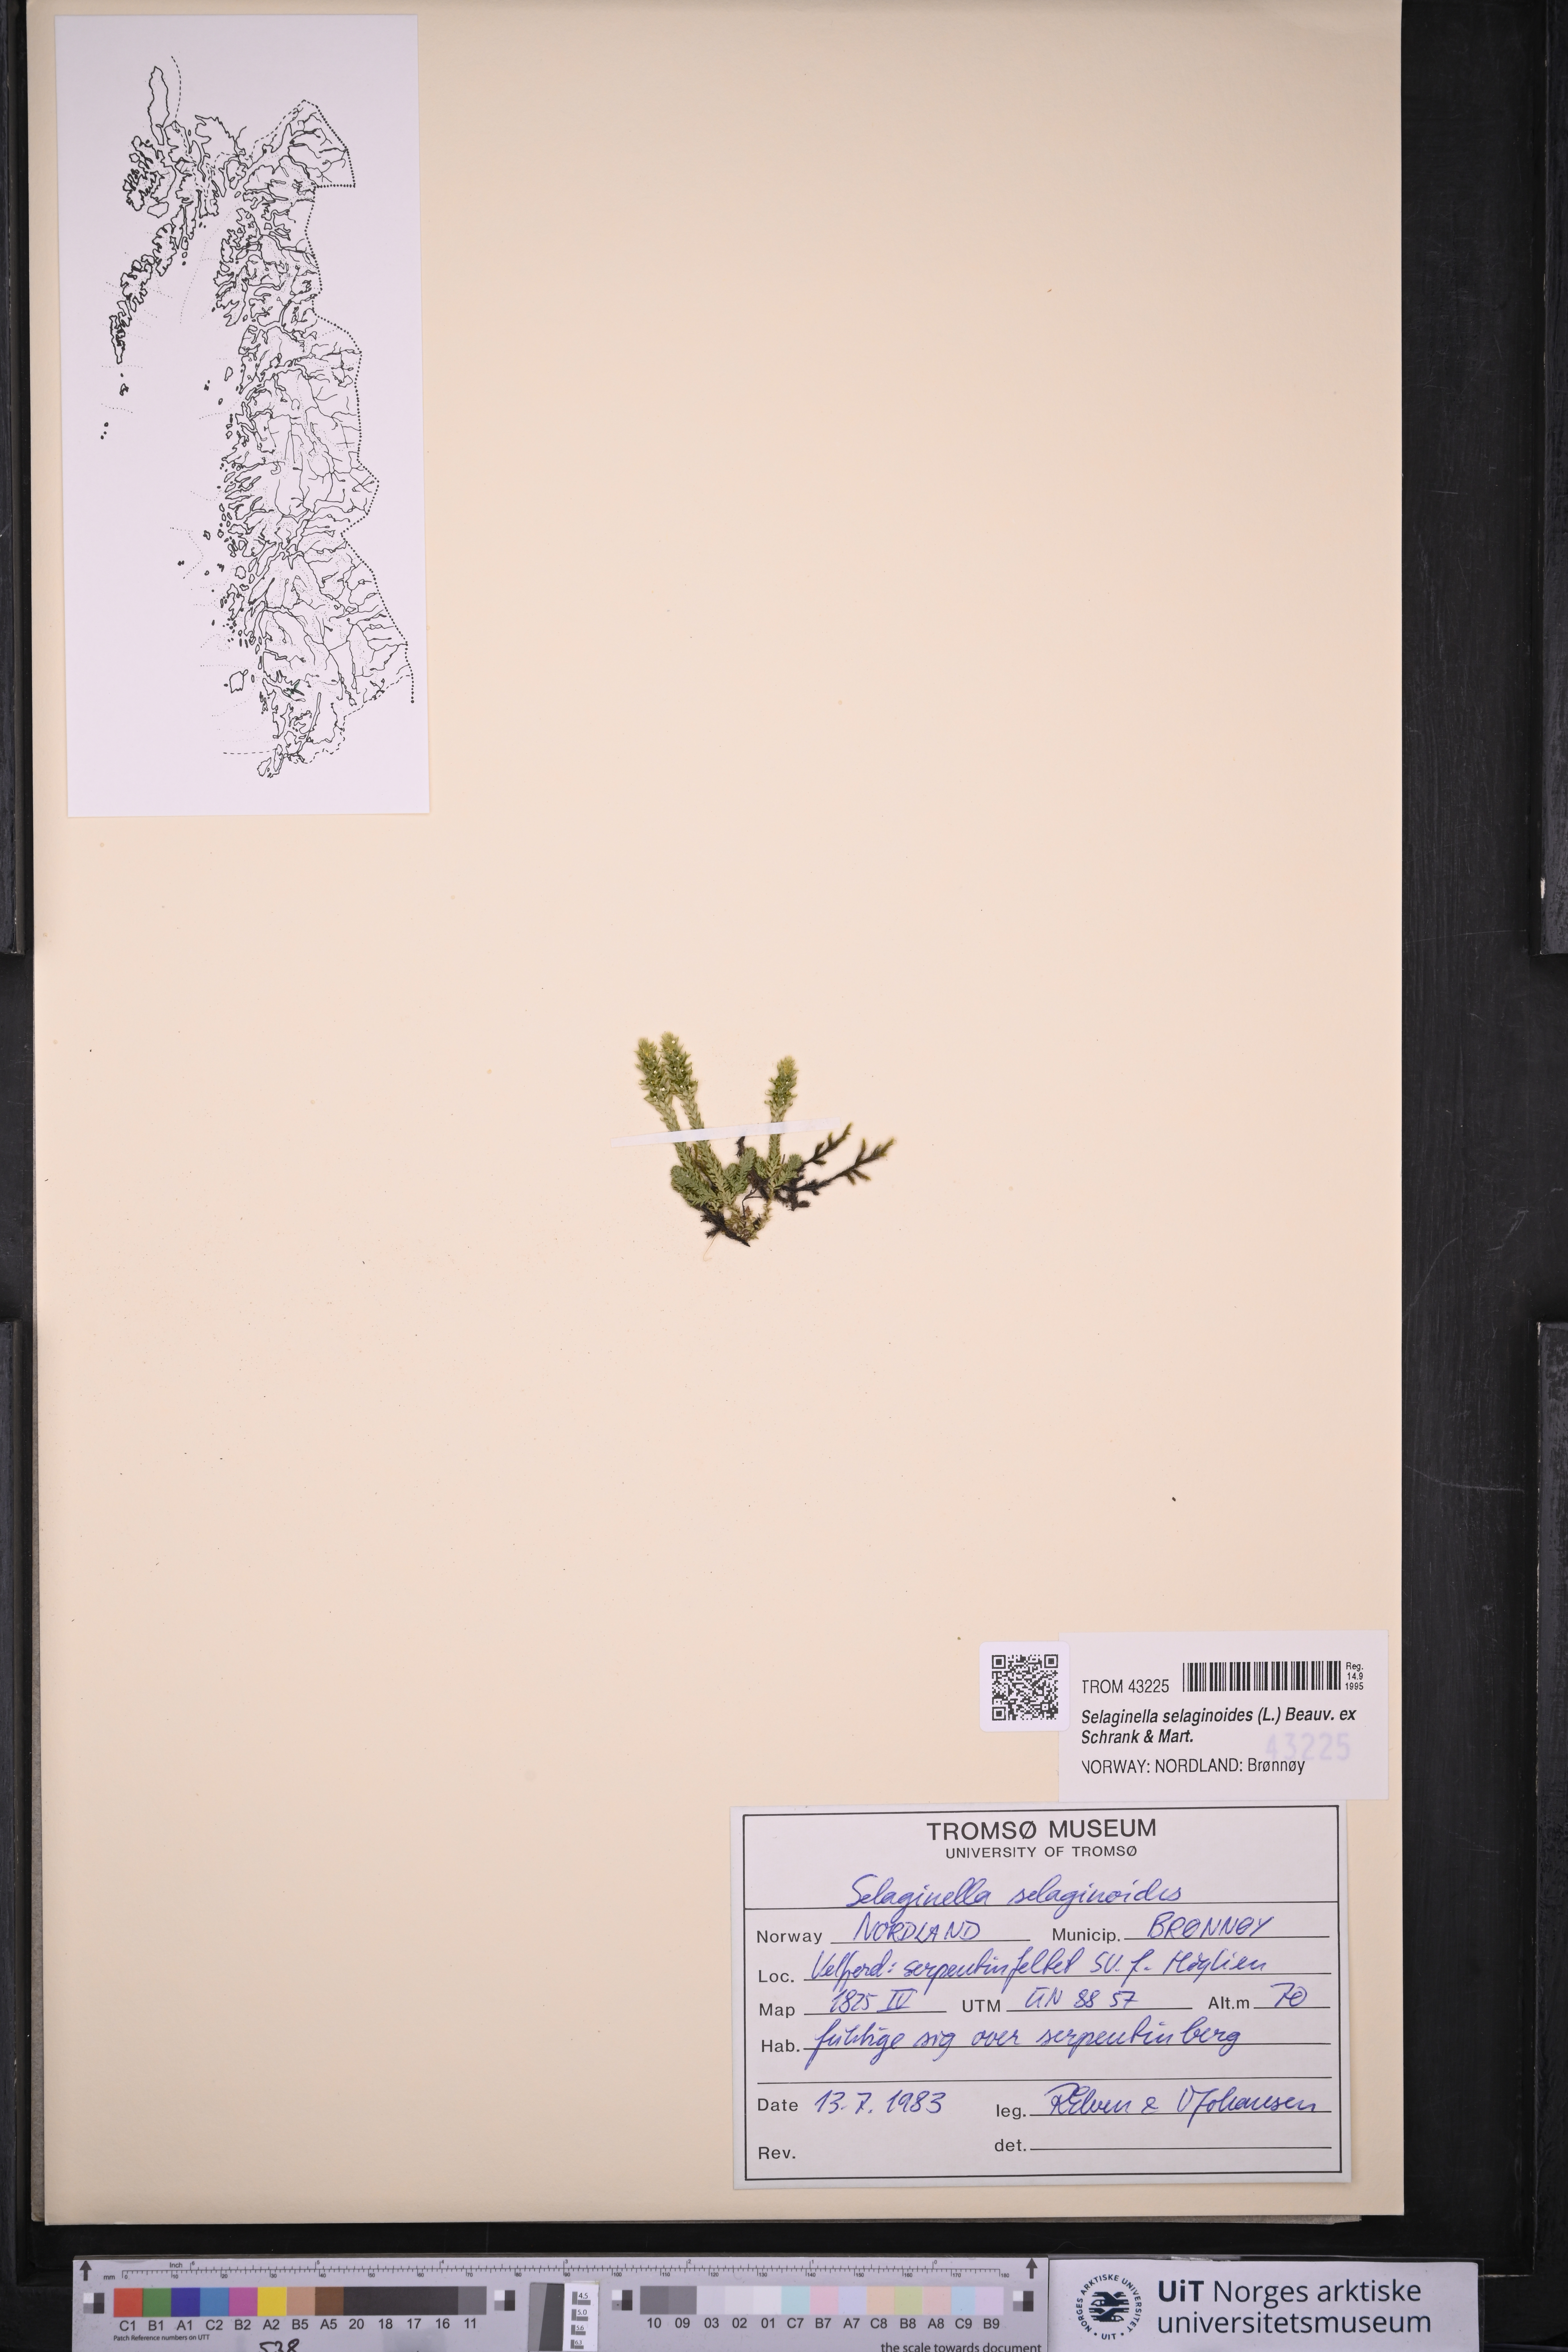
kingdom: Plantae
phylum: Tracheophyta
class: Lycopodiopsida
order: Selaginellales
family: Selaginellaceae
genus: Selaginella
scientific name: Selaginella selaginoides
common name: Prickly mountain-moss
